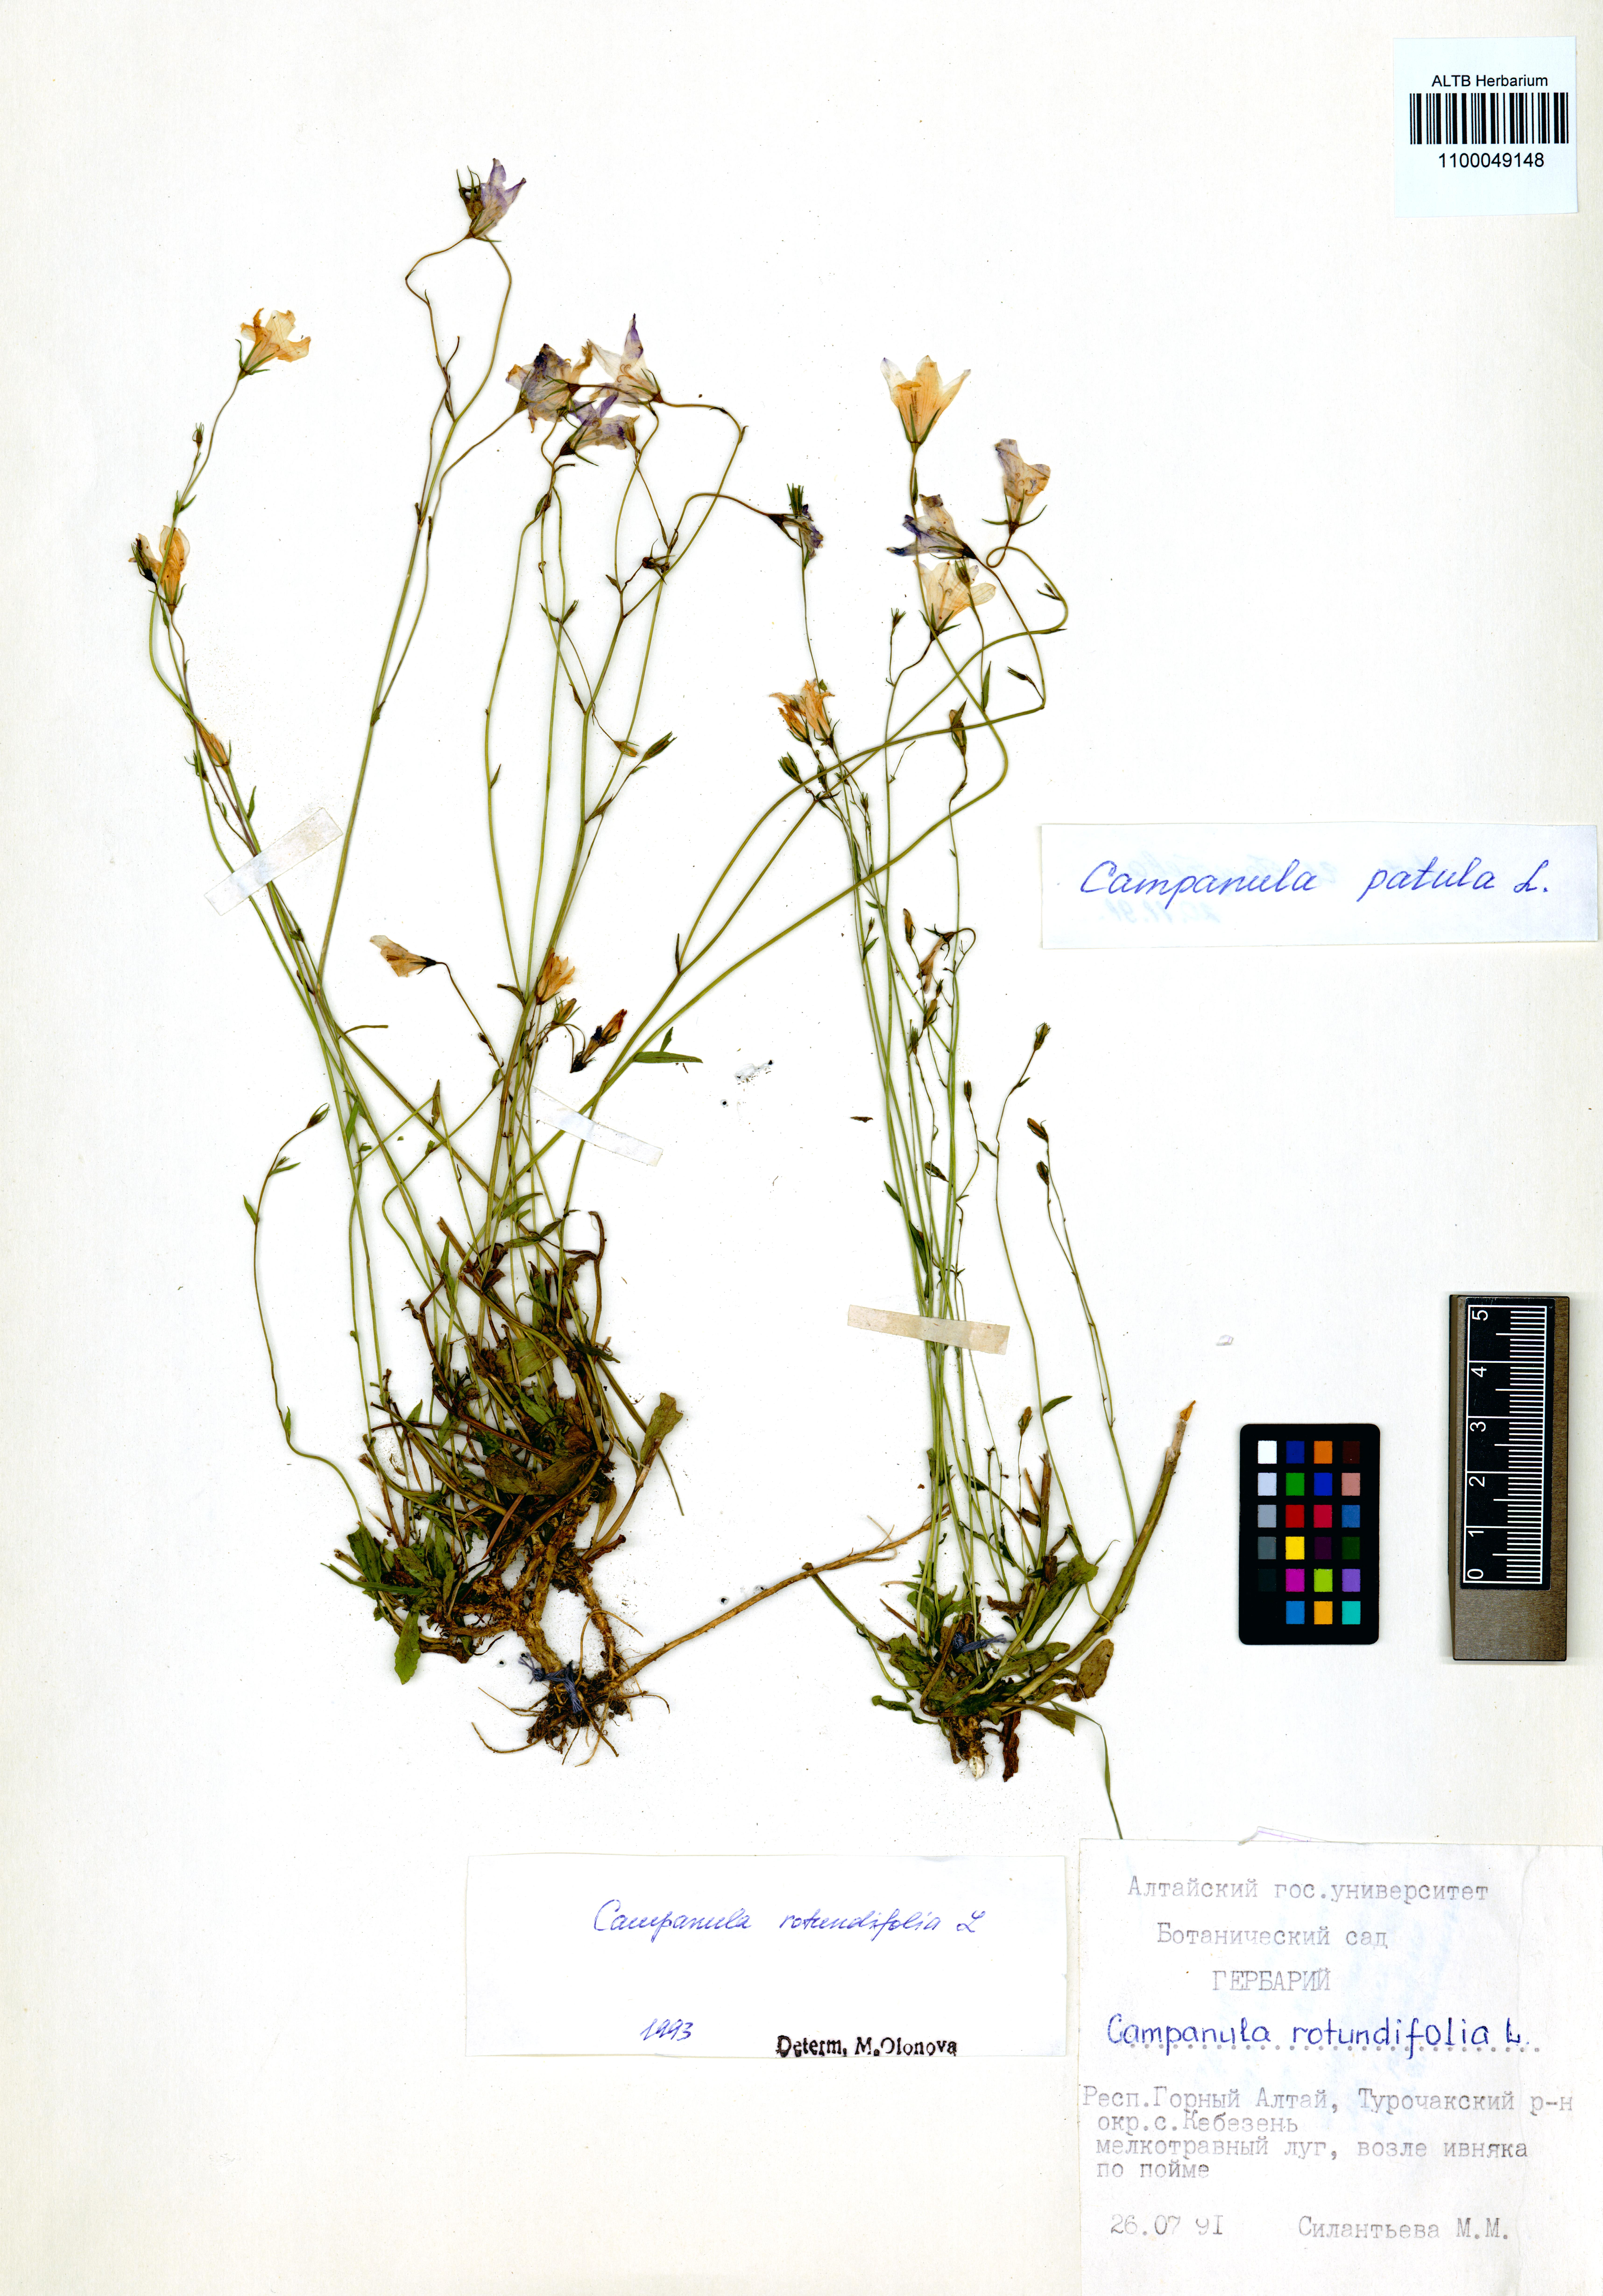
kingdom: Plantae
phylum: Tracheophyta
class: Magnoliopsida
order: Asterales
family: Campanulaceae
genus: Campanula
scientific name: Campanula patula
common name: Spreading bellflower
